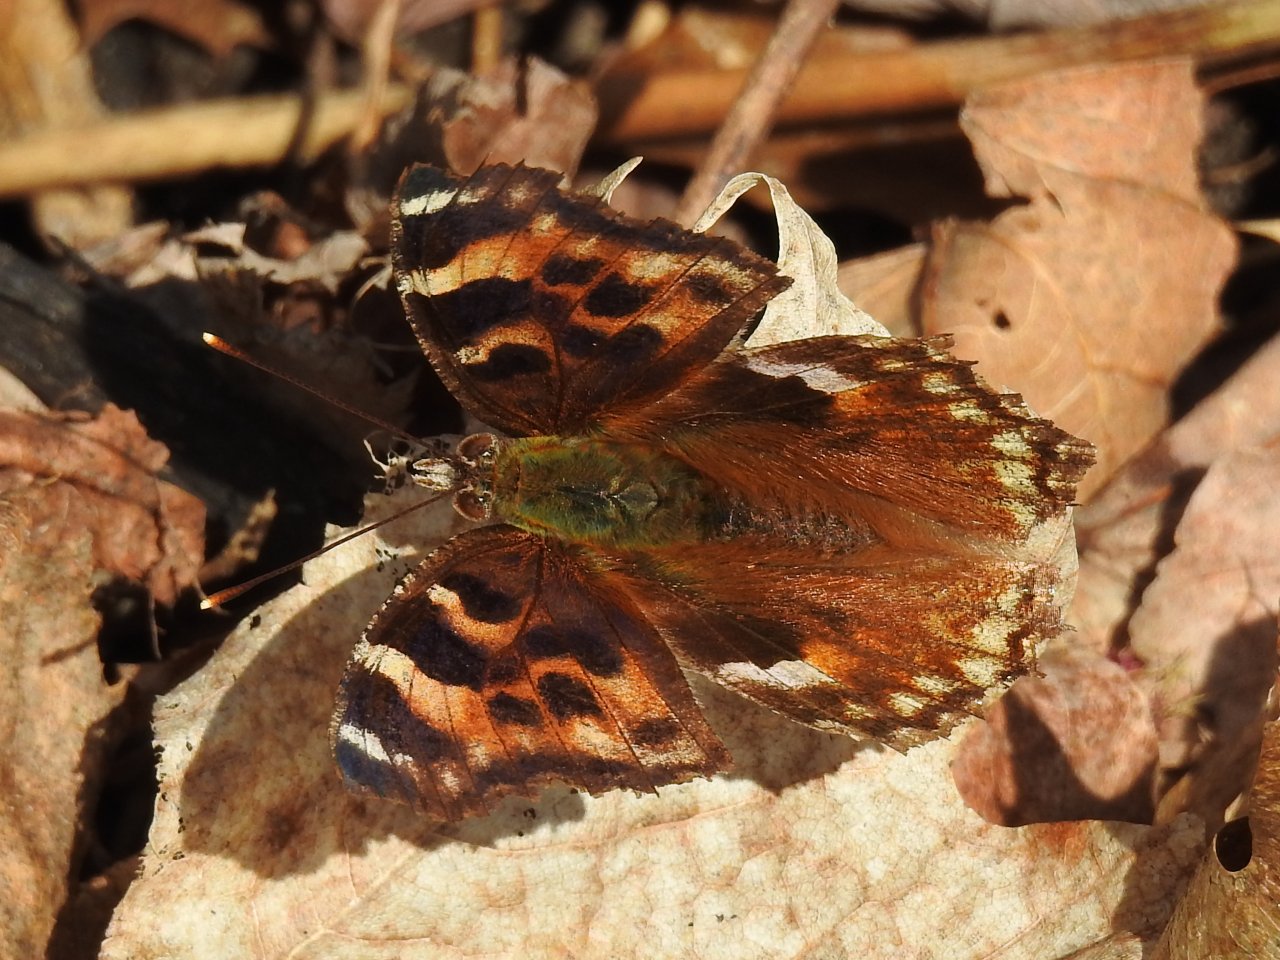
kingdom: Animalia
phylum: Arthropoda
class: Insecta
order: Lepidoptera
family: Nymphalidae
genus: Polygonia
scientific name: Polygonia vaualbum
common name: Compton Tortoiseshell
